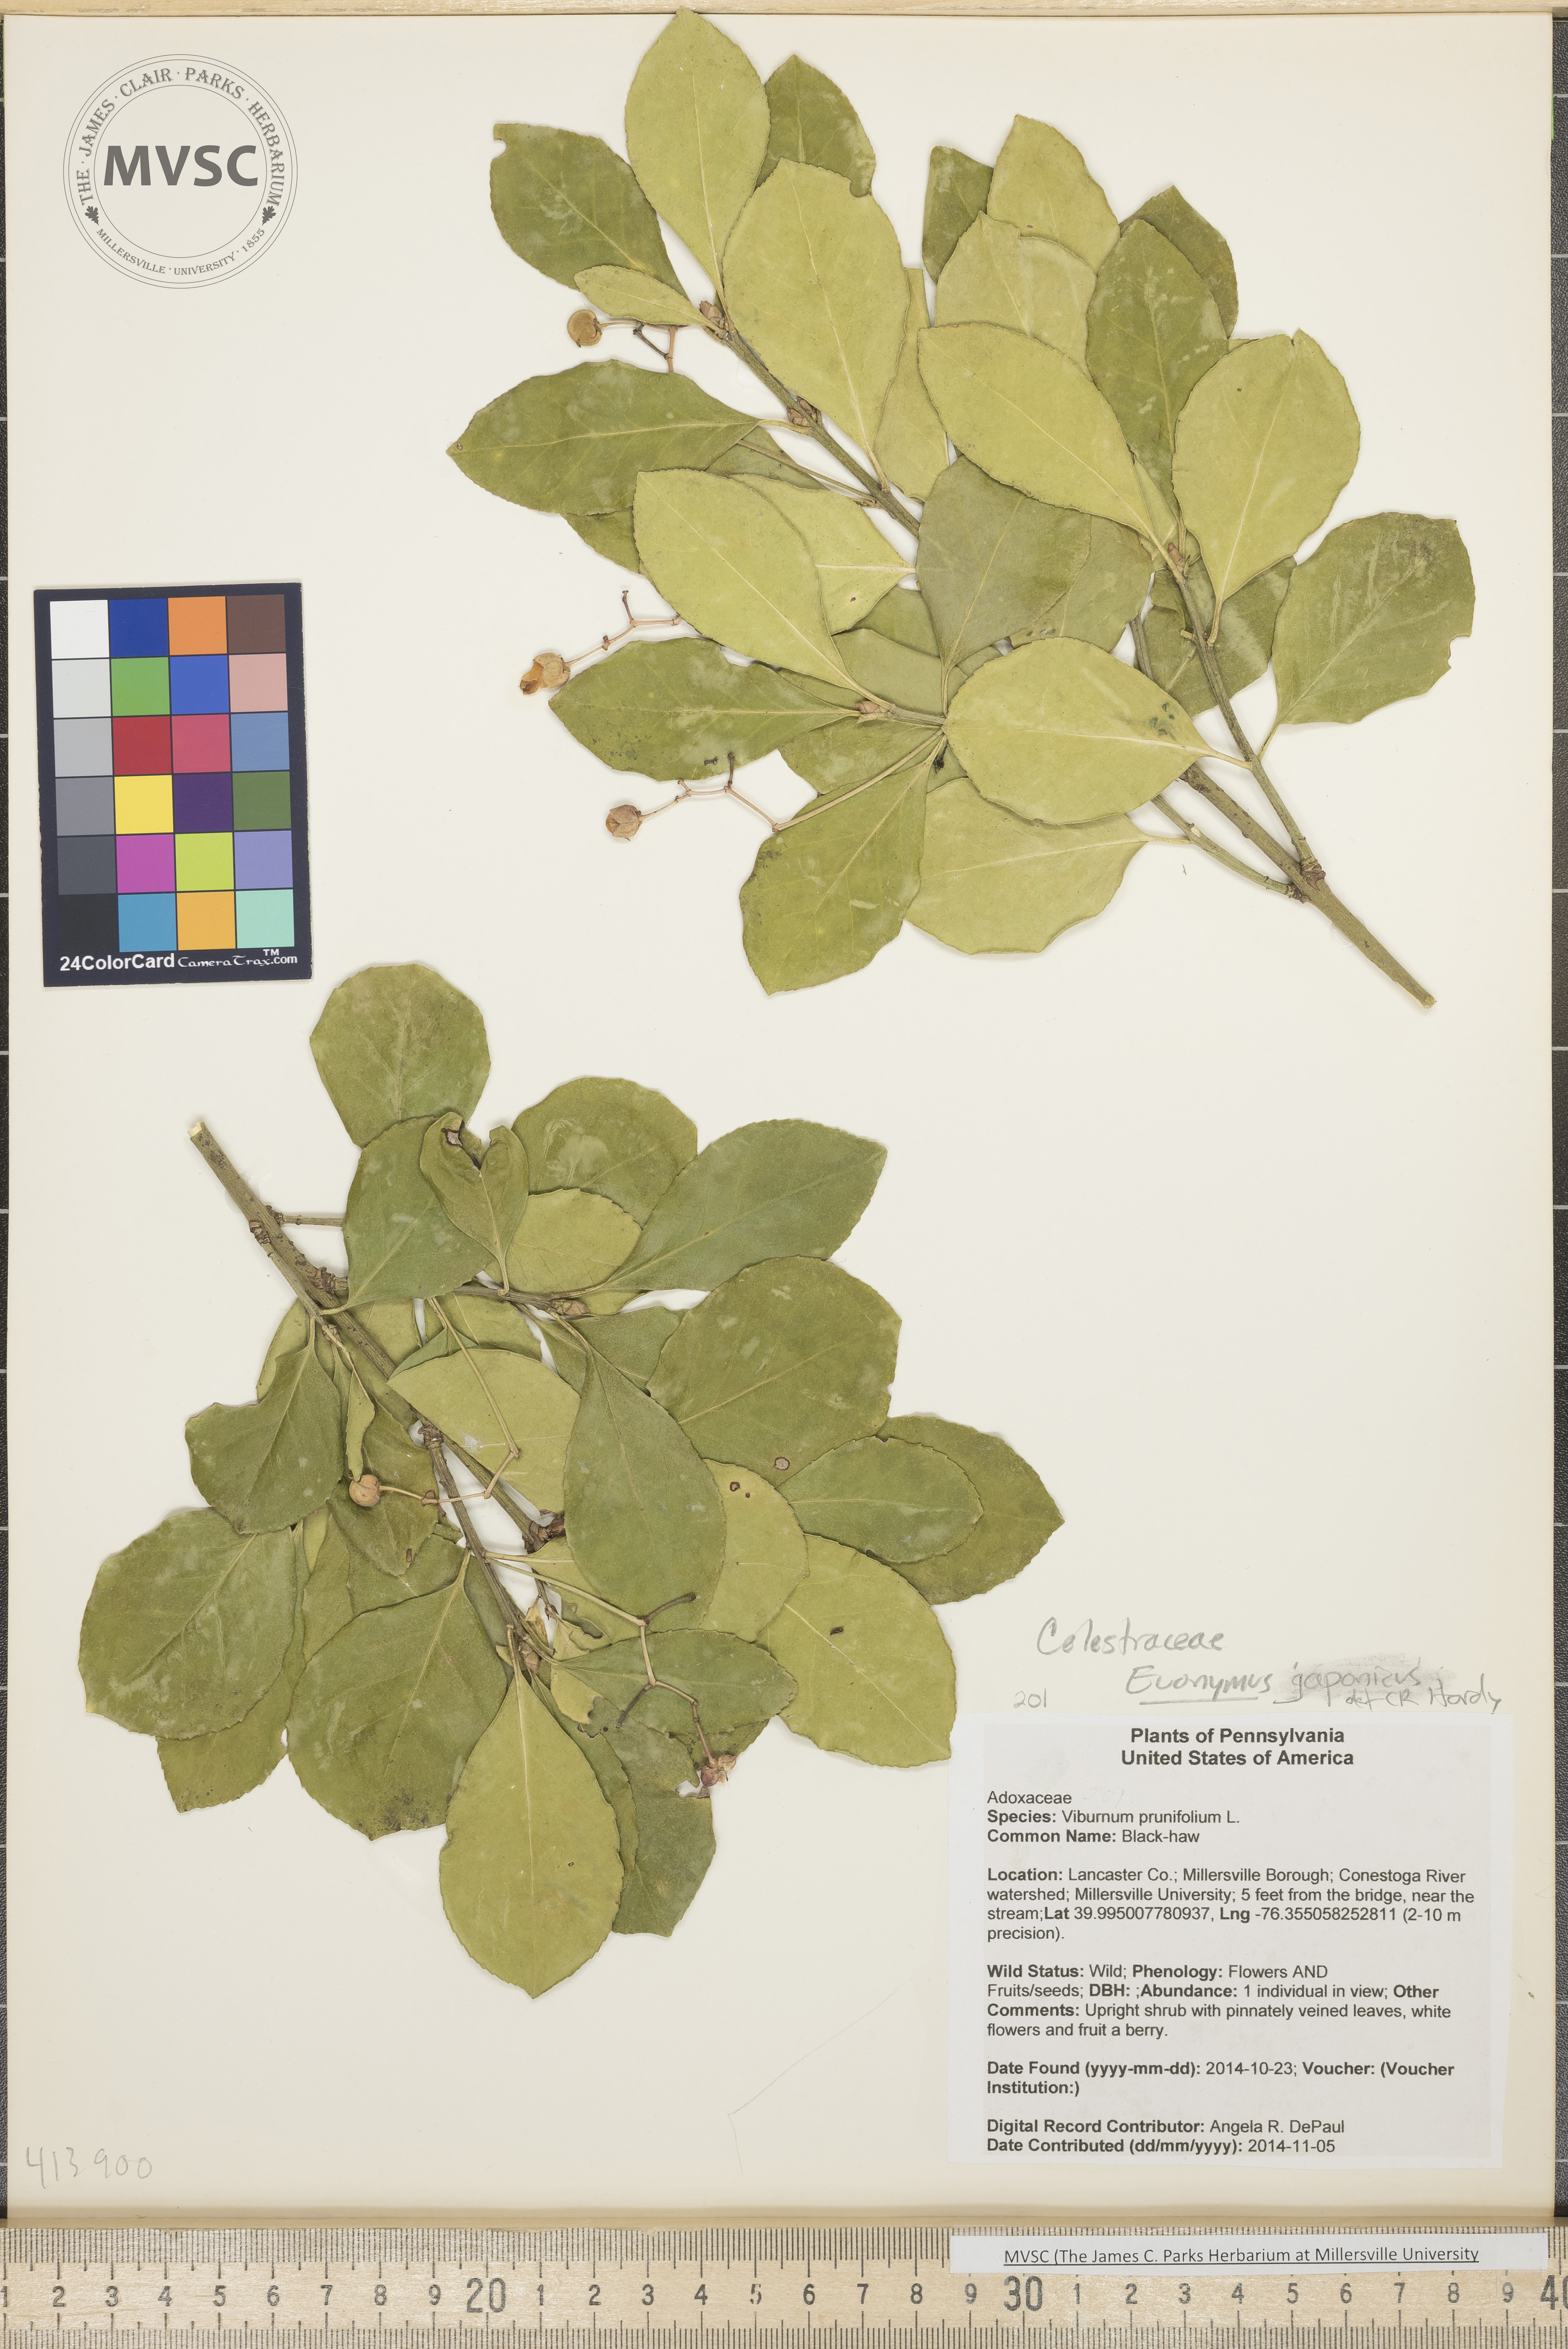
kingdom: Plantae
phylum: Tracheophyta
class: Magnoliopsida
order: Celastrales
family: Celastraceae
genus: Euonymus
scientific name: Euonymus japonicus
